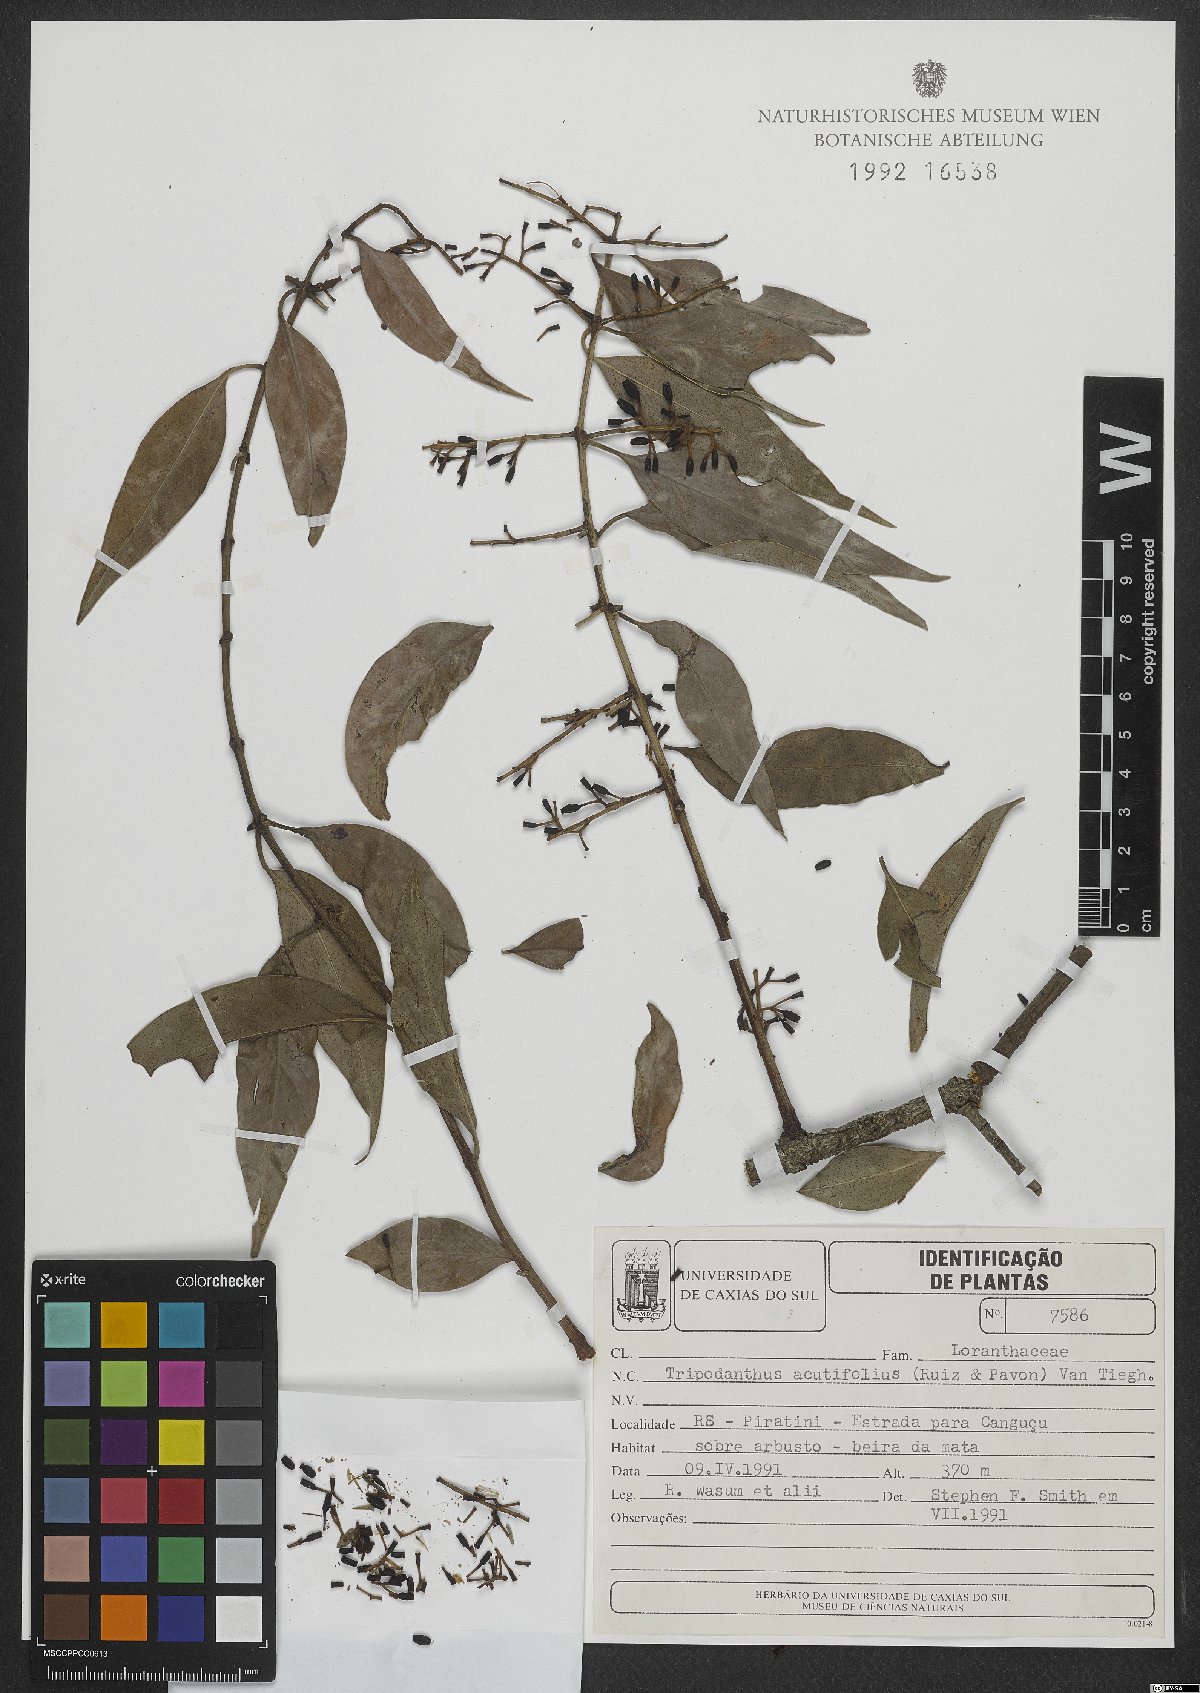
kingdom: Plantae
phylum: Tracheophyta
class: Magnoliopsida
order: Santalales
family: Loranthaceae
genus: Tripodanthus
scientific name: Tripodanthus acutifolius
